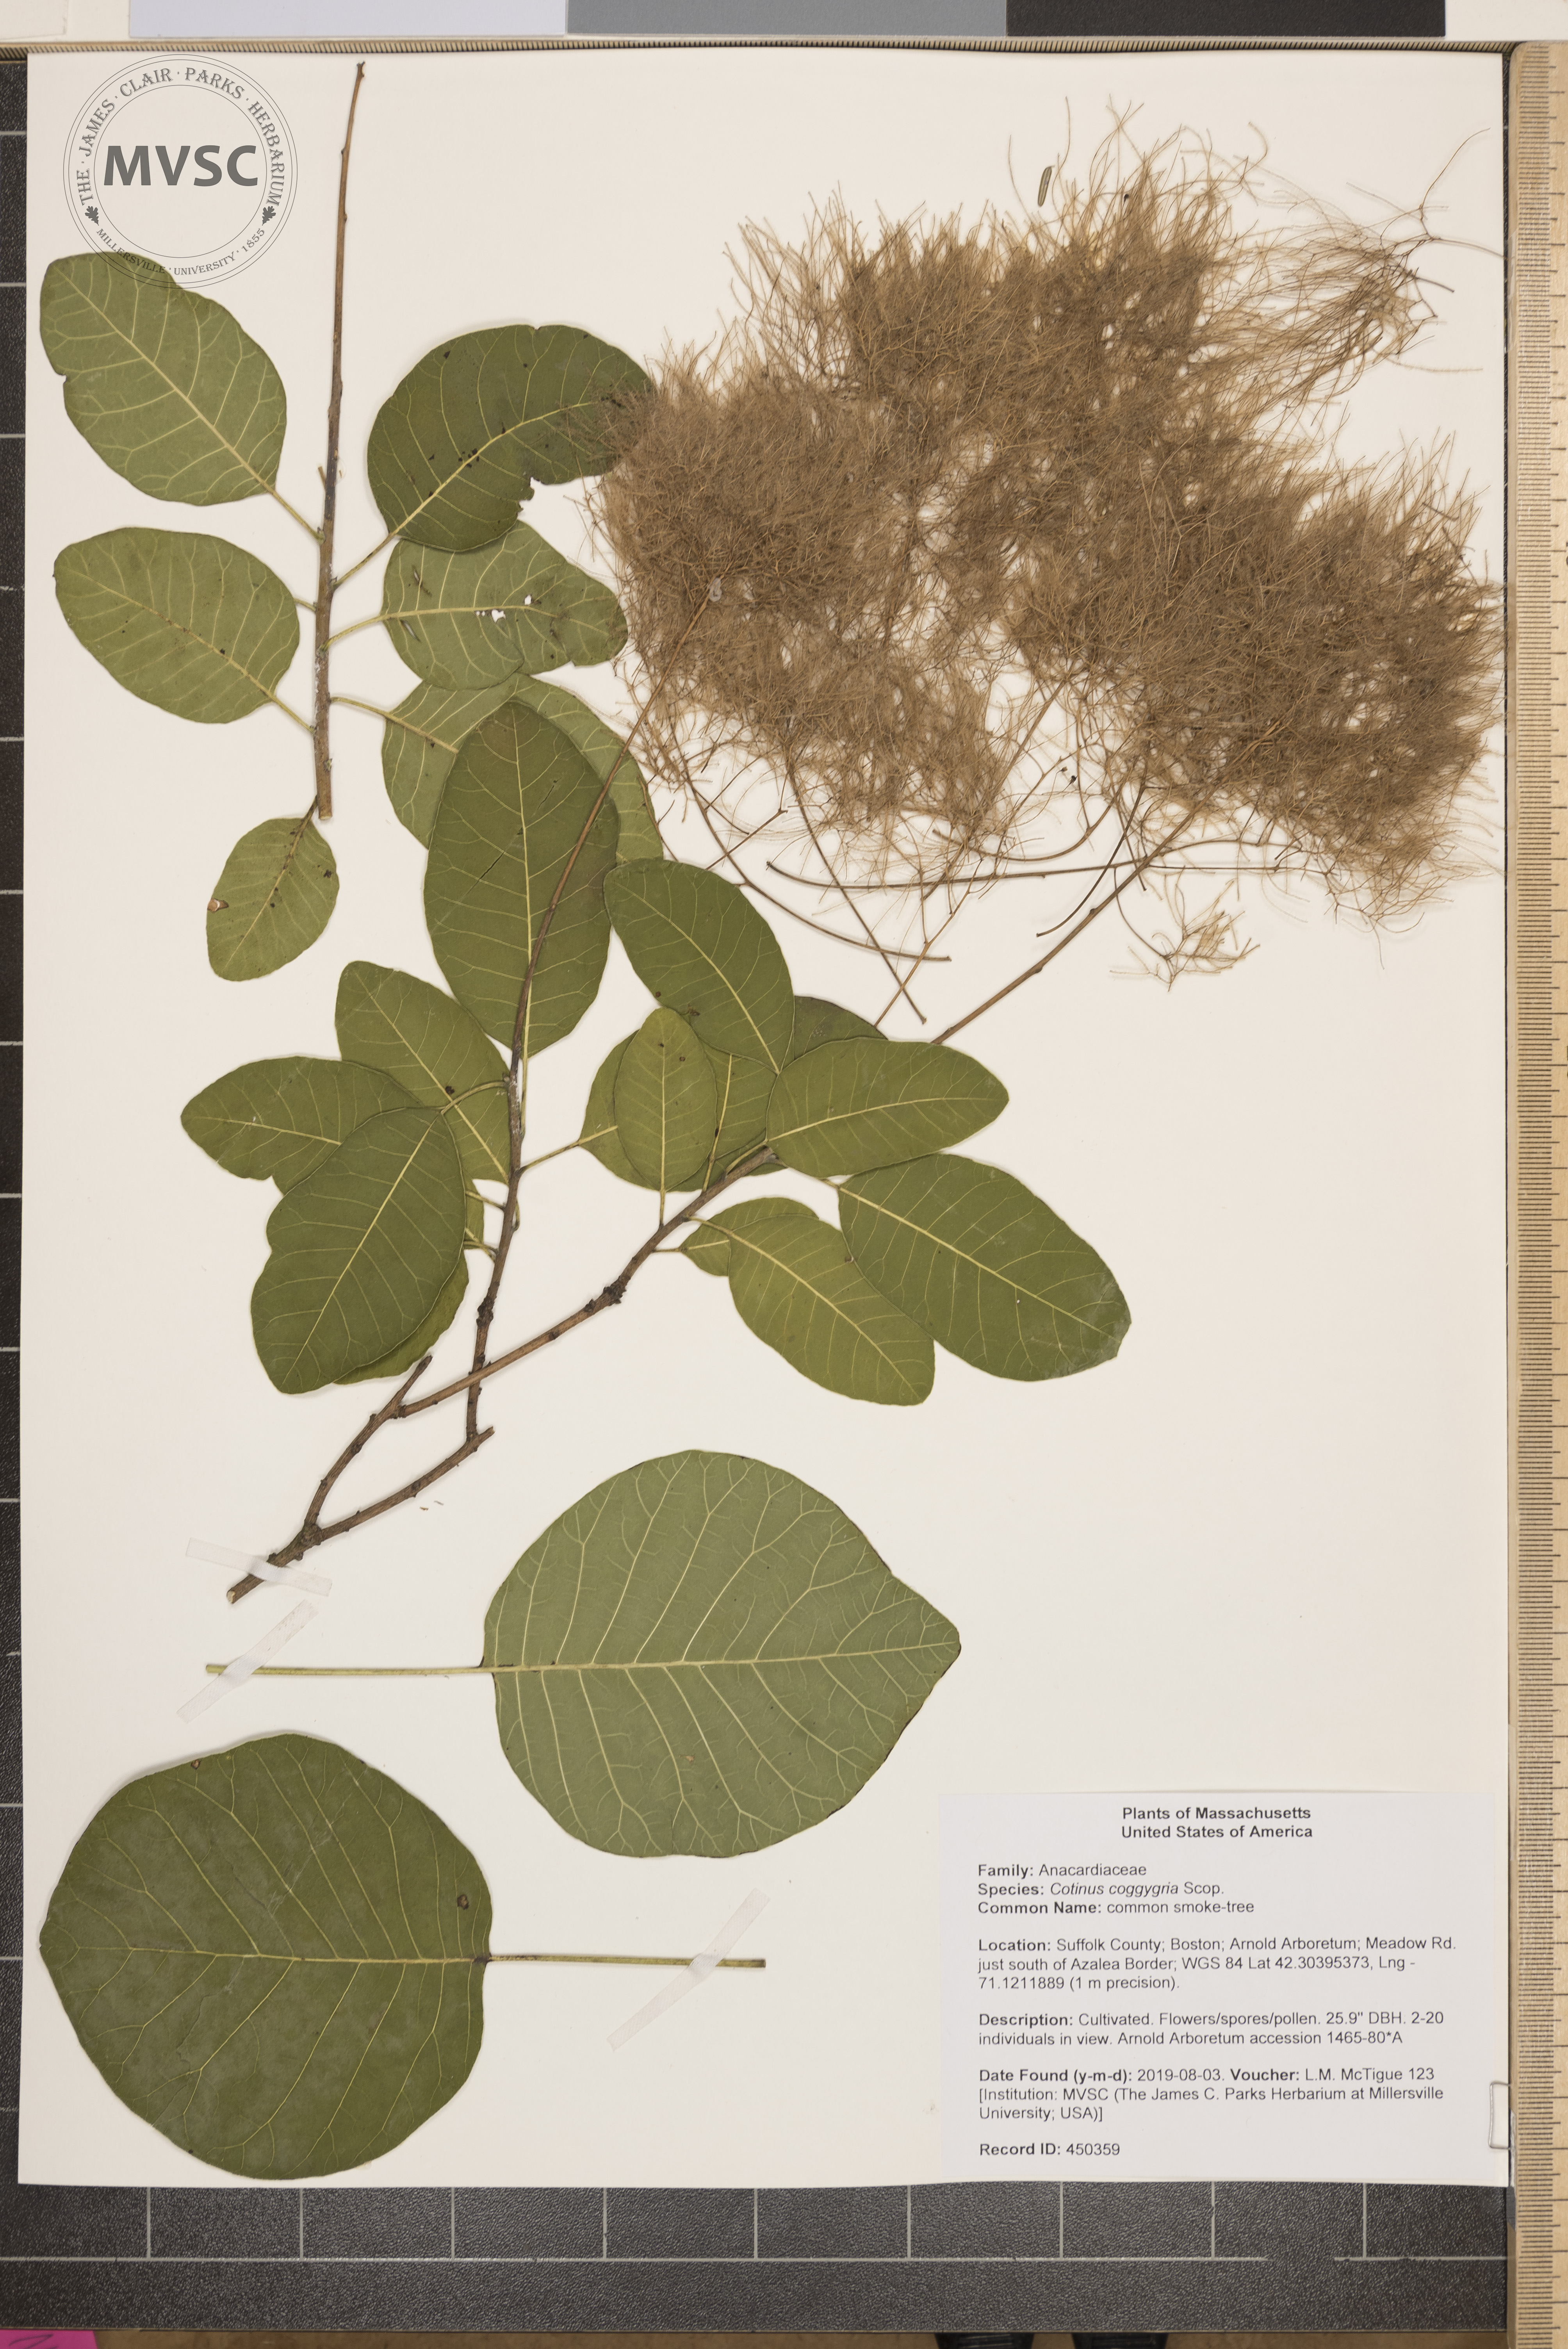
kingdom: Plantae
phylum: Tracheophyta
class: Magnoliopsida
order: Sapindales
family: Anacardiaceae
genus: Cotinus
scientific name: Cotinus coggygria
